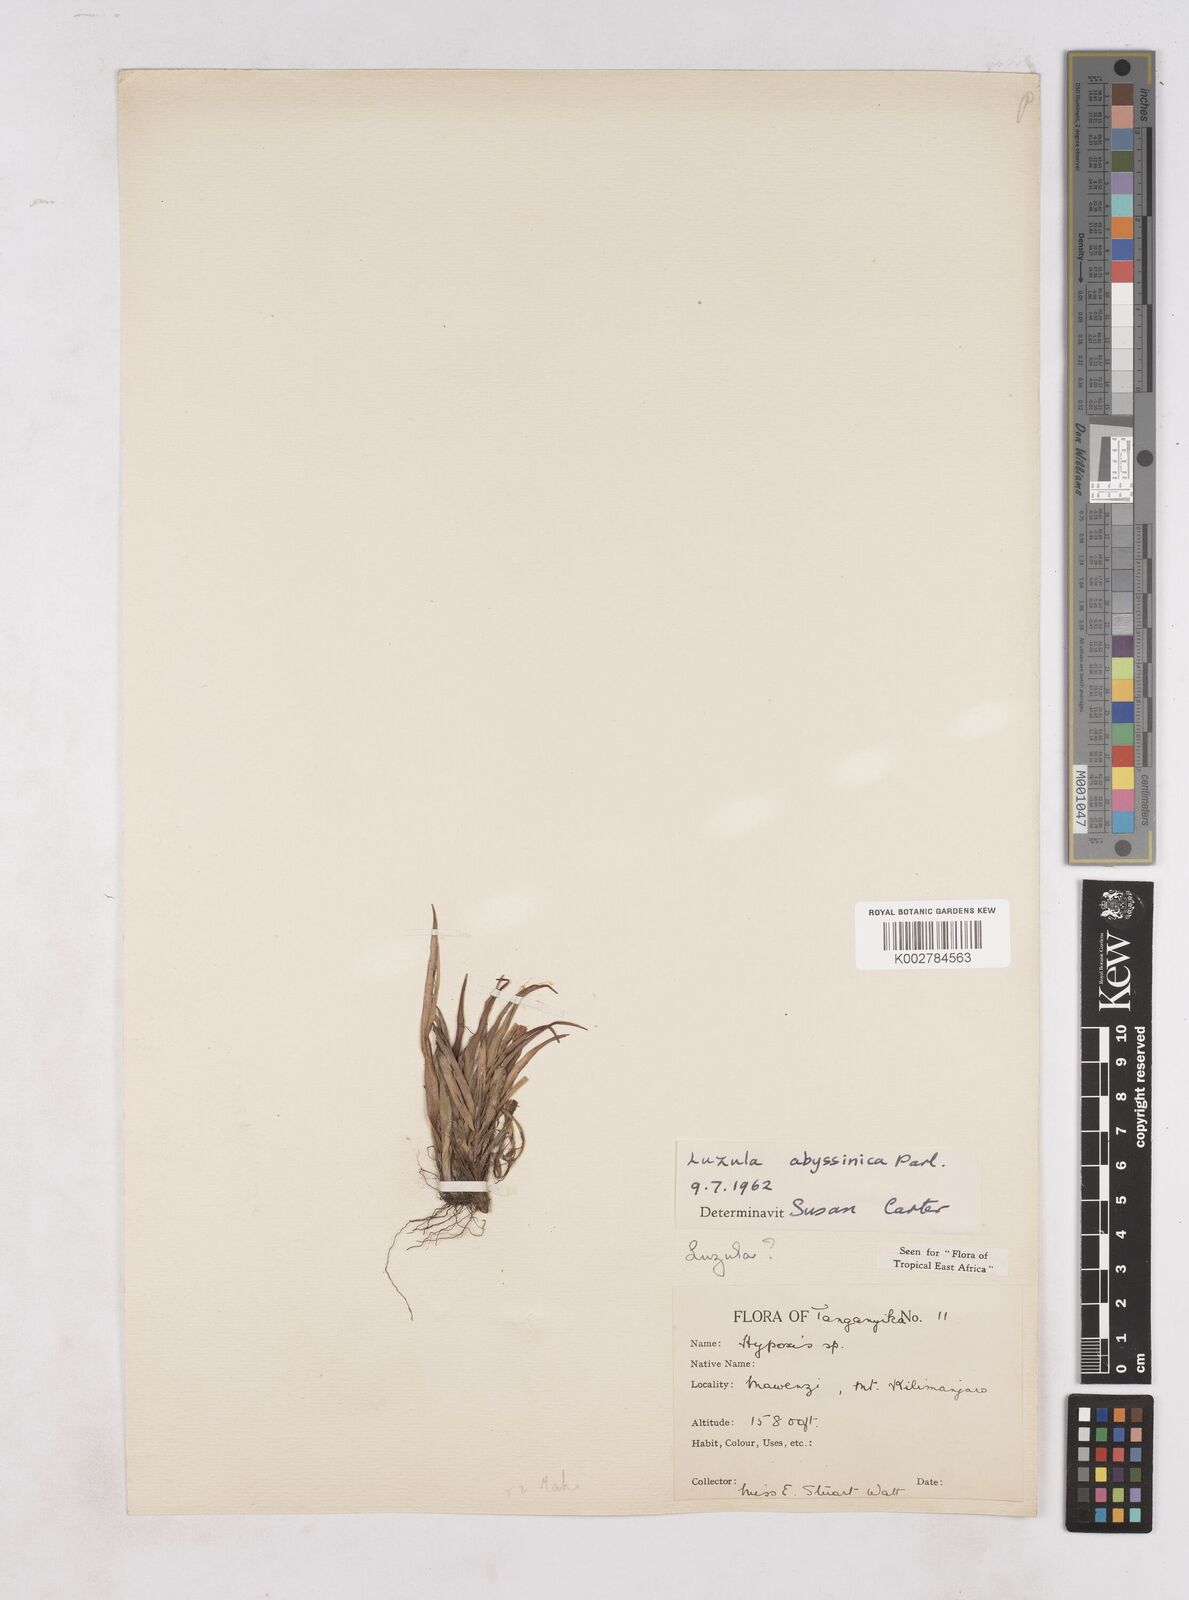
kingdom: Plantae
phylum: Tracheophyta
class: Liliopsida
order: Poales
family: Juncaceae
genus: Luzula
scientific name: Luzula abyssinica
